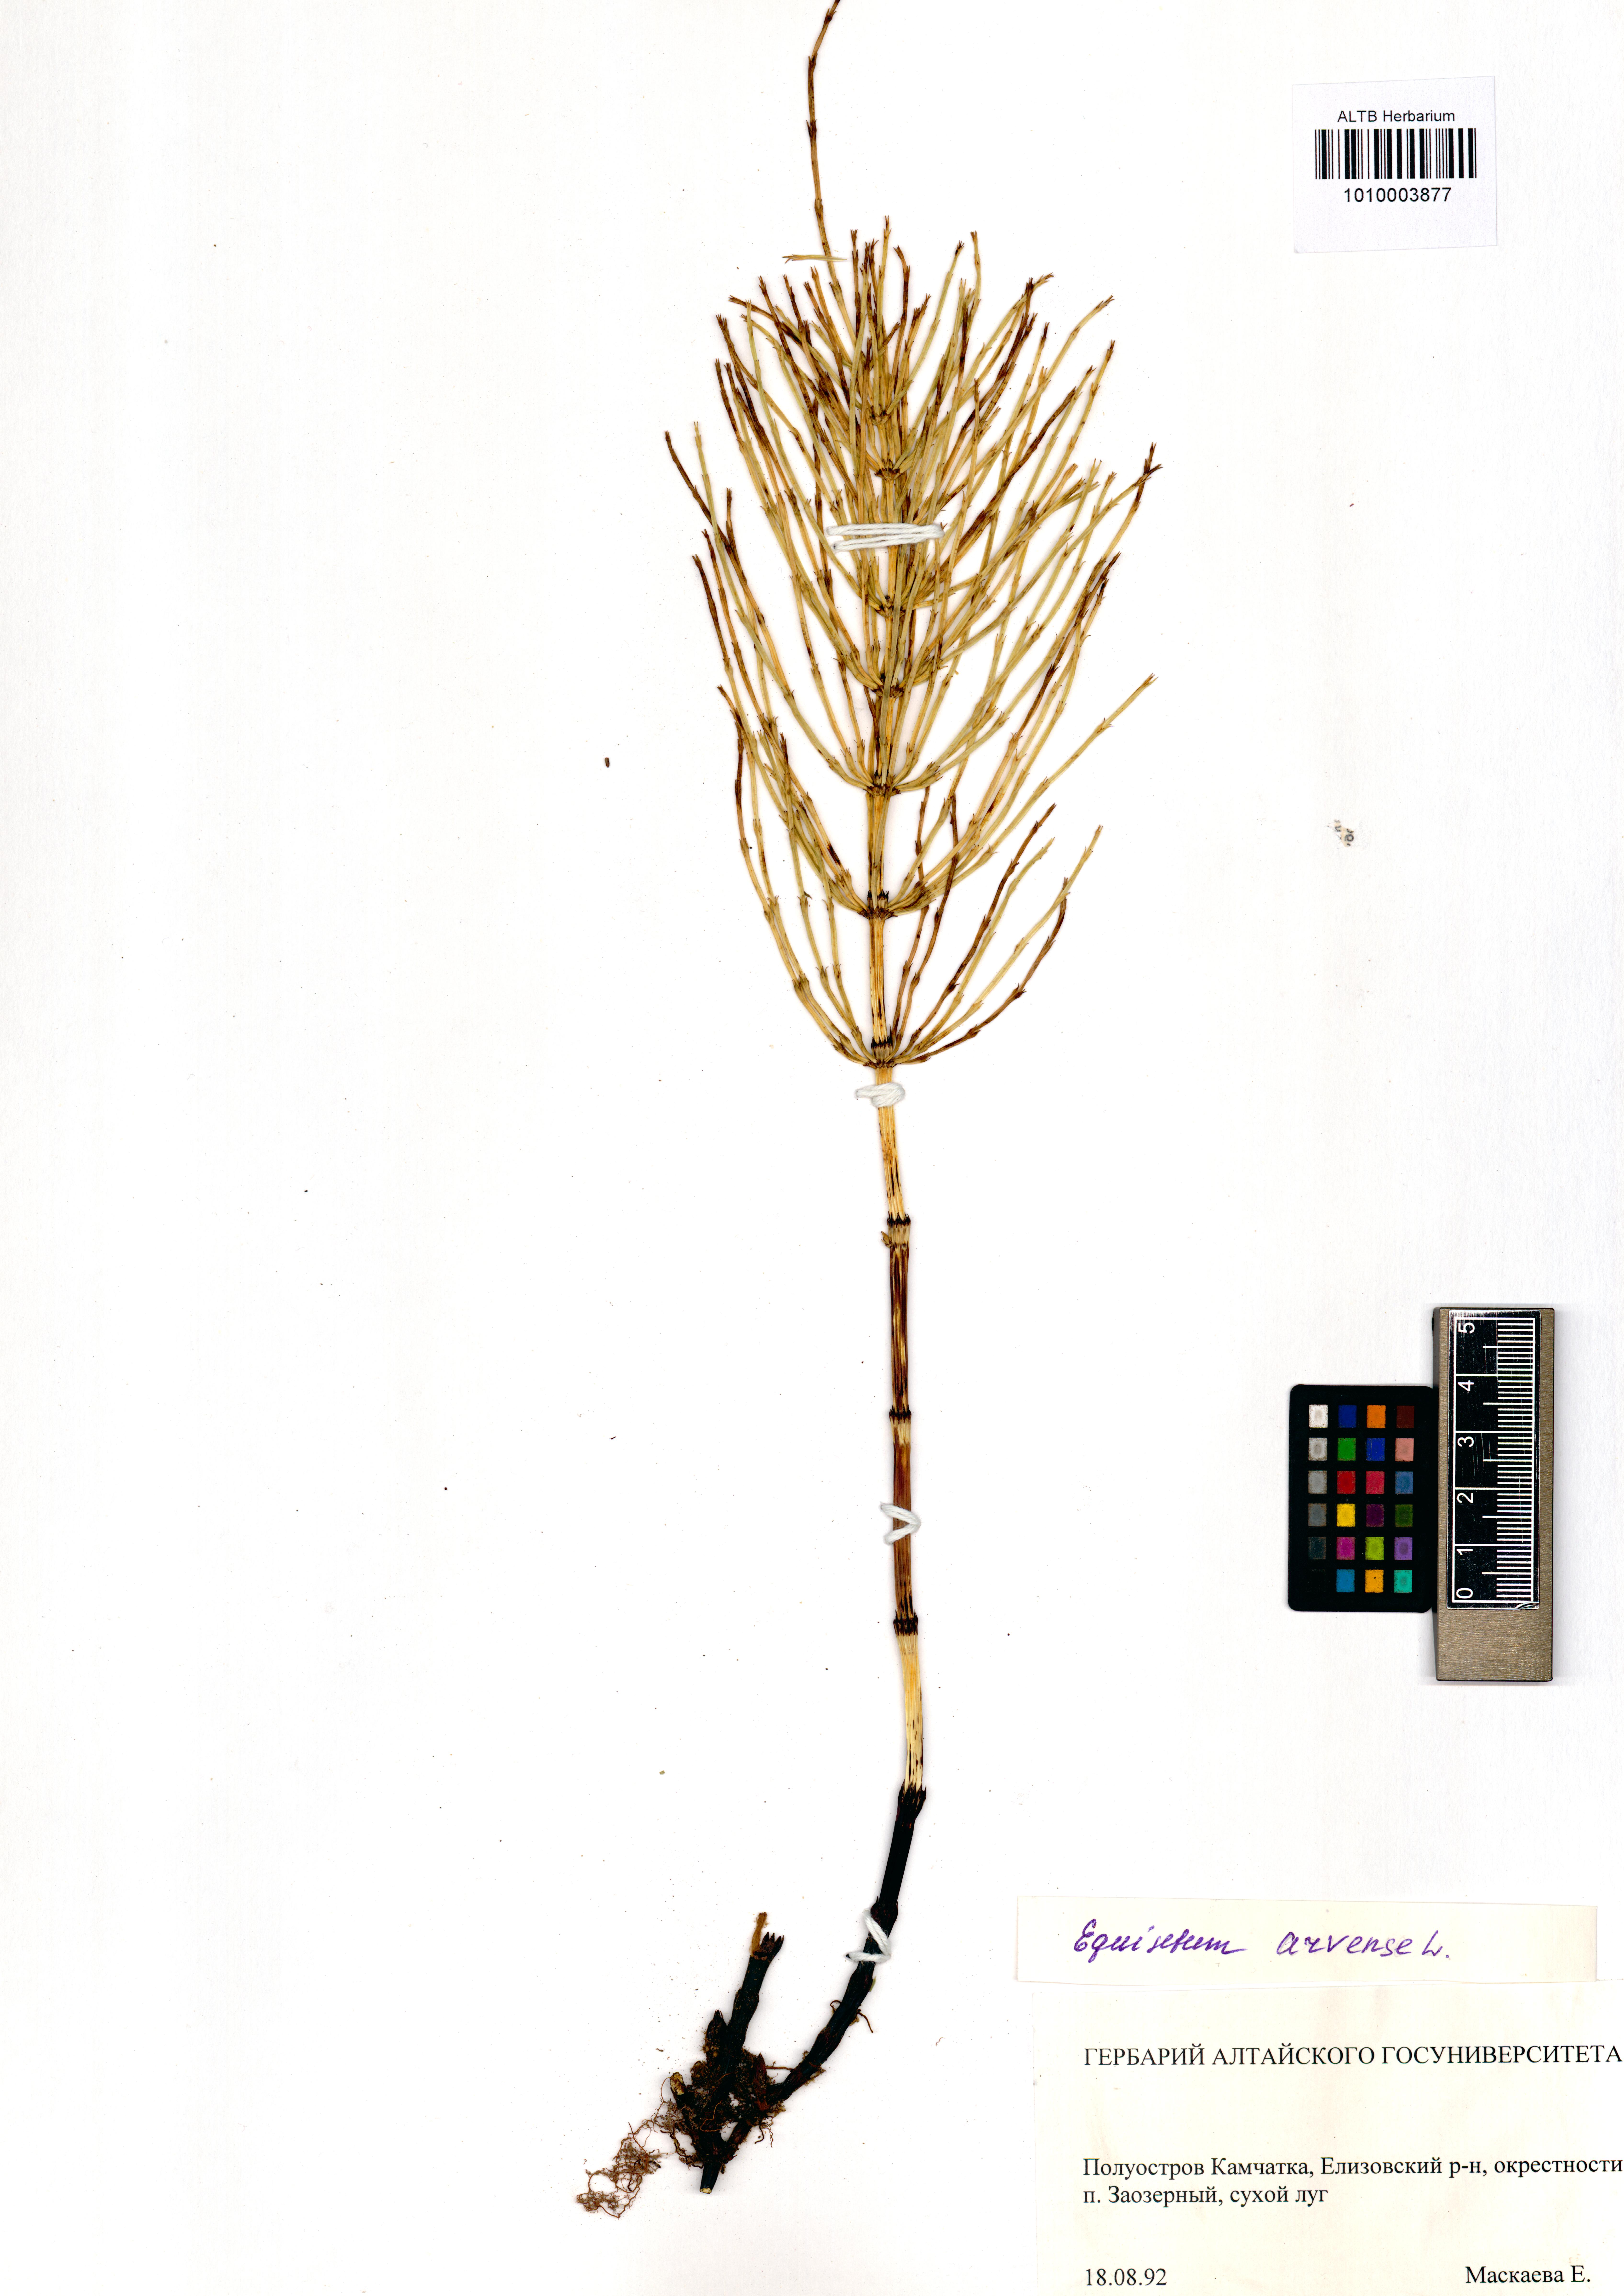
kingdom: Plantae
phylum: Tracheophyta
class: Polypodiopsida
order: Equisetales
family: Equisetaceae
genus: Equisetum
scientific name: Equisetum arvense
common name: Field horsetail
